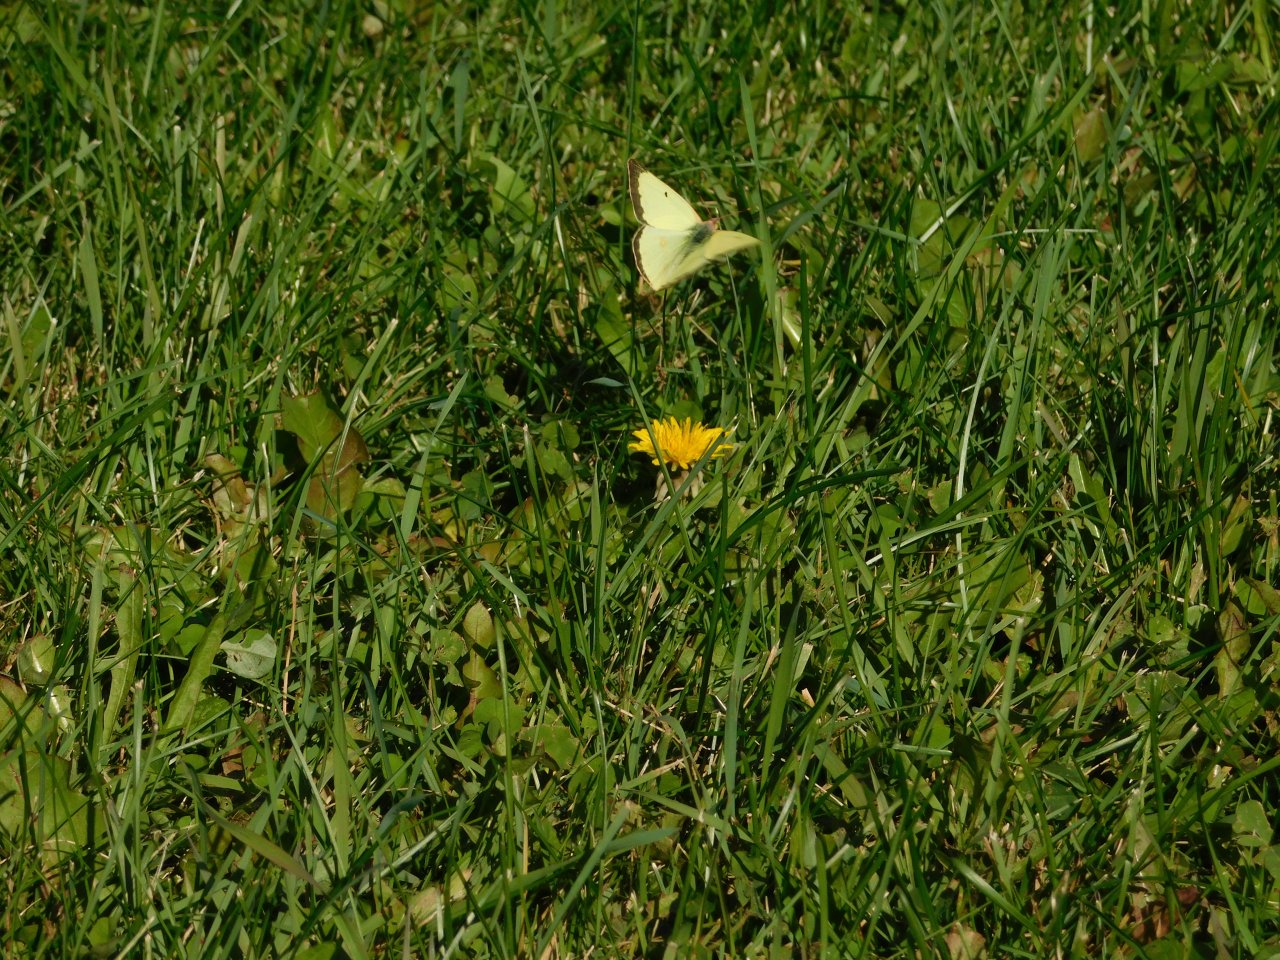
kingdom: Animalia
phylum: Arthropoda
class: Insecta
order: Lepidoptera
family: Pieridae
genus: Colias
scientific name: Colias philodice
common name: Clouded Sulphur
